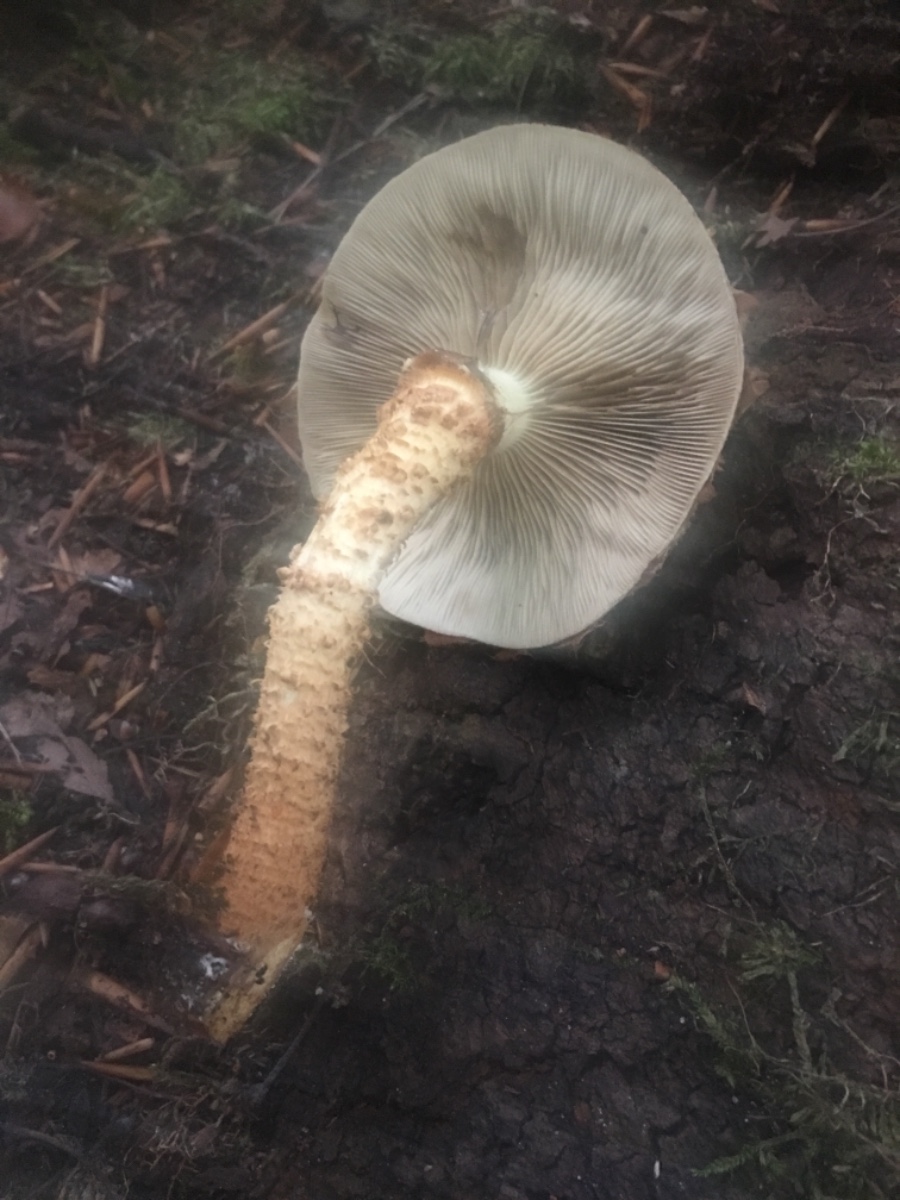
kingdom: Fungi
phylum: Basidiomycota
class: Agaricomycetes
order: Agaricales
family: Strophariaceae
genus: Pholiota
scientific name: Pholiota squarrosa
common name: krumskællet skælhat
